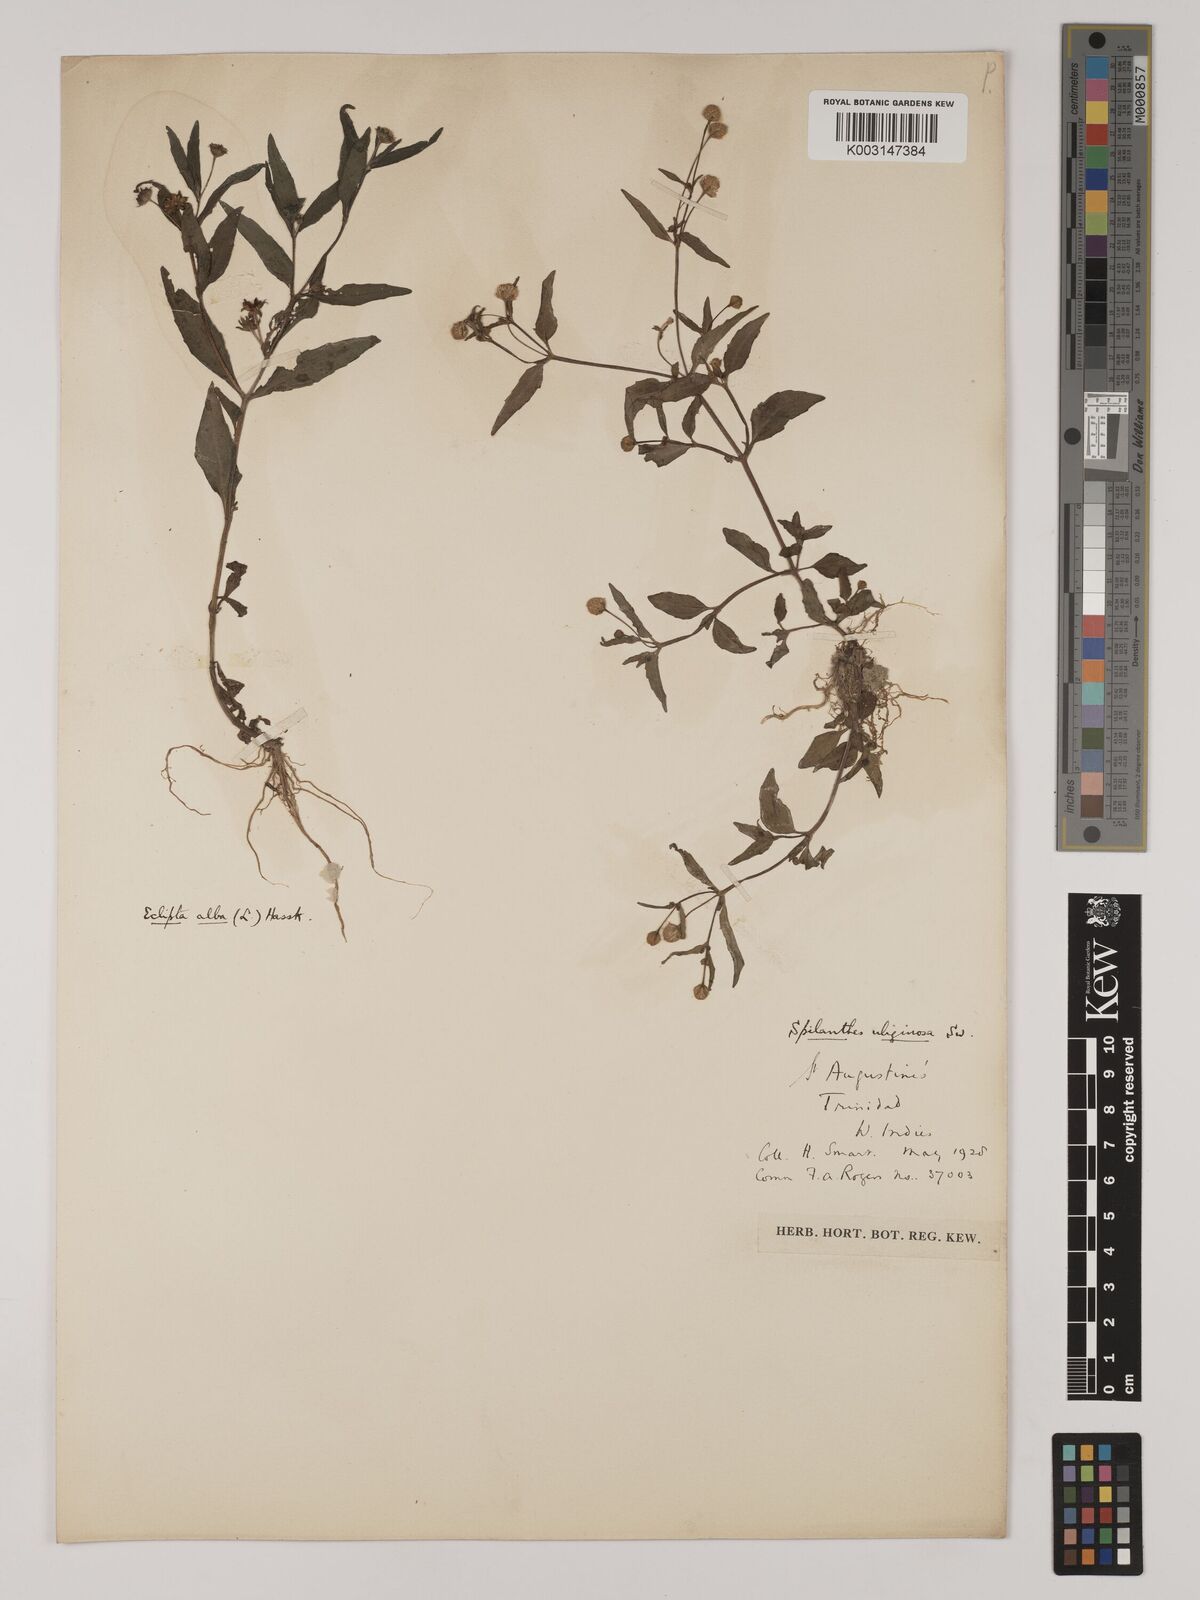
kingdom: Plantae
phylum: Tracheophyta
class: Magnoliopsida
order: Asterales
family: Asteraceae
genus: Acmella
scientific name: Acmella uliginosa
